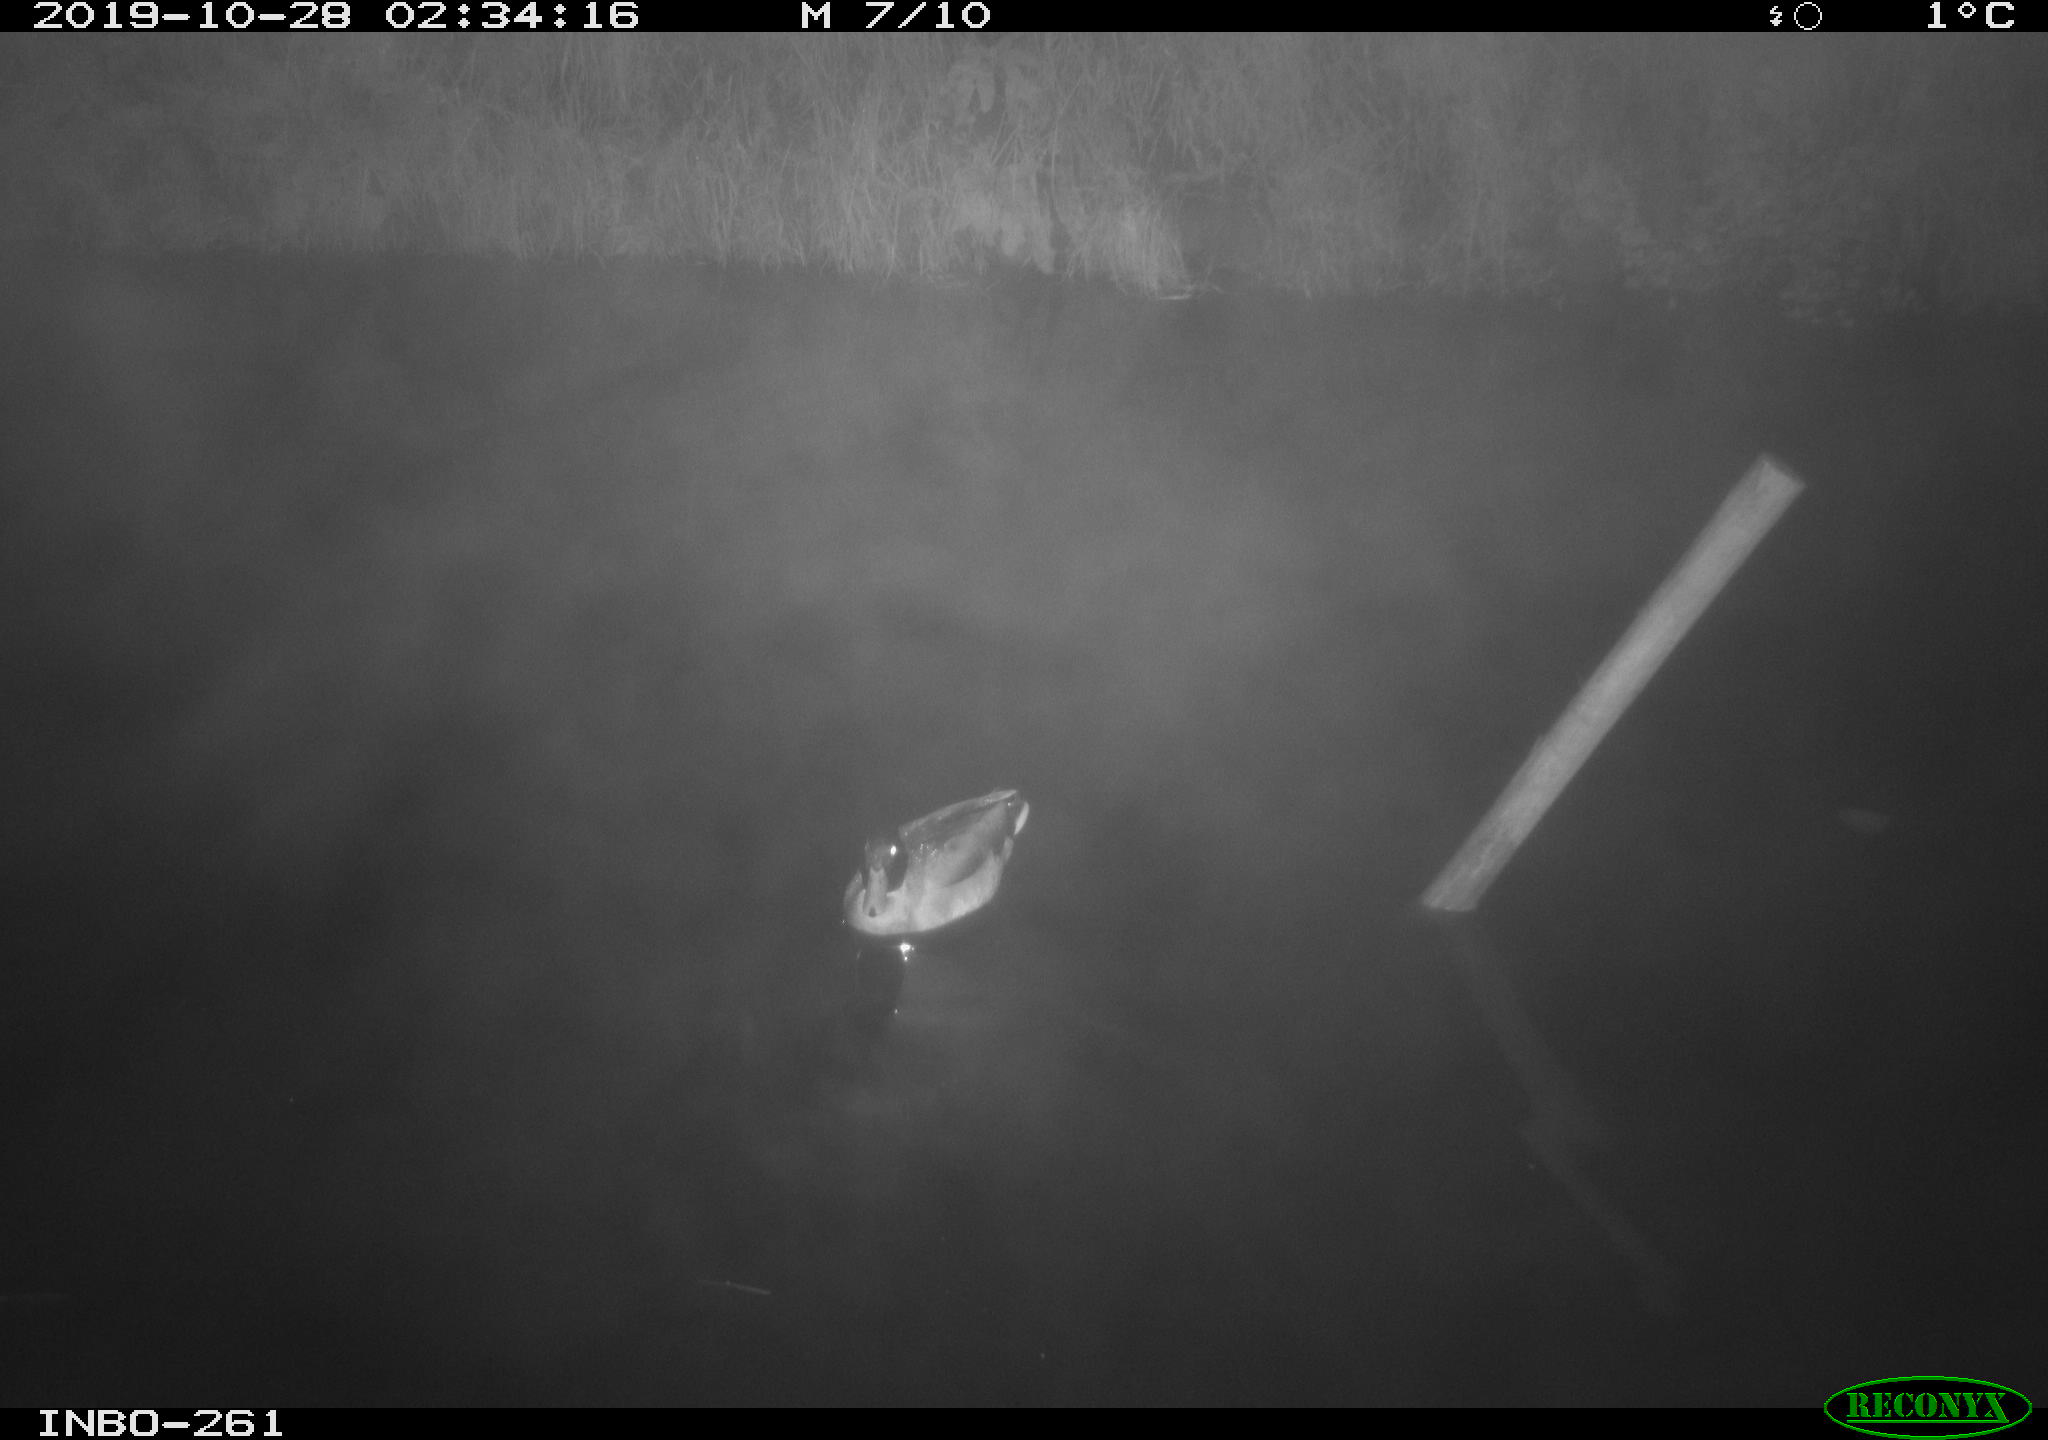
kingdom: Animalia
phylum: Chordata
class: Aves
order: Anseriformes
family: Anatidae
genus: Anas
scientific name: Anas platyrhynchos
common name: Mallard
